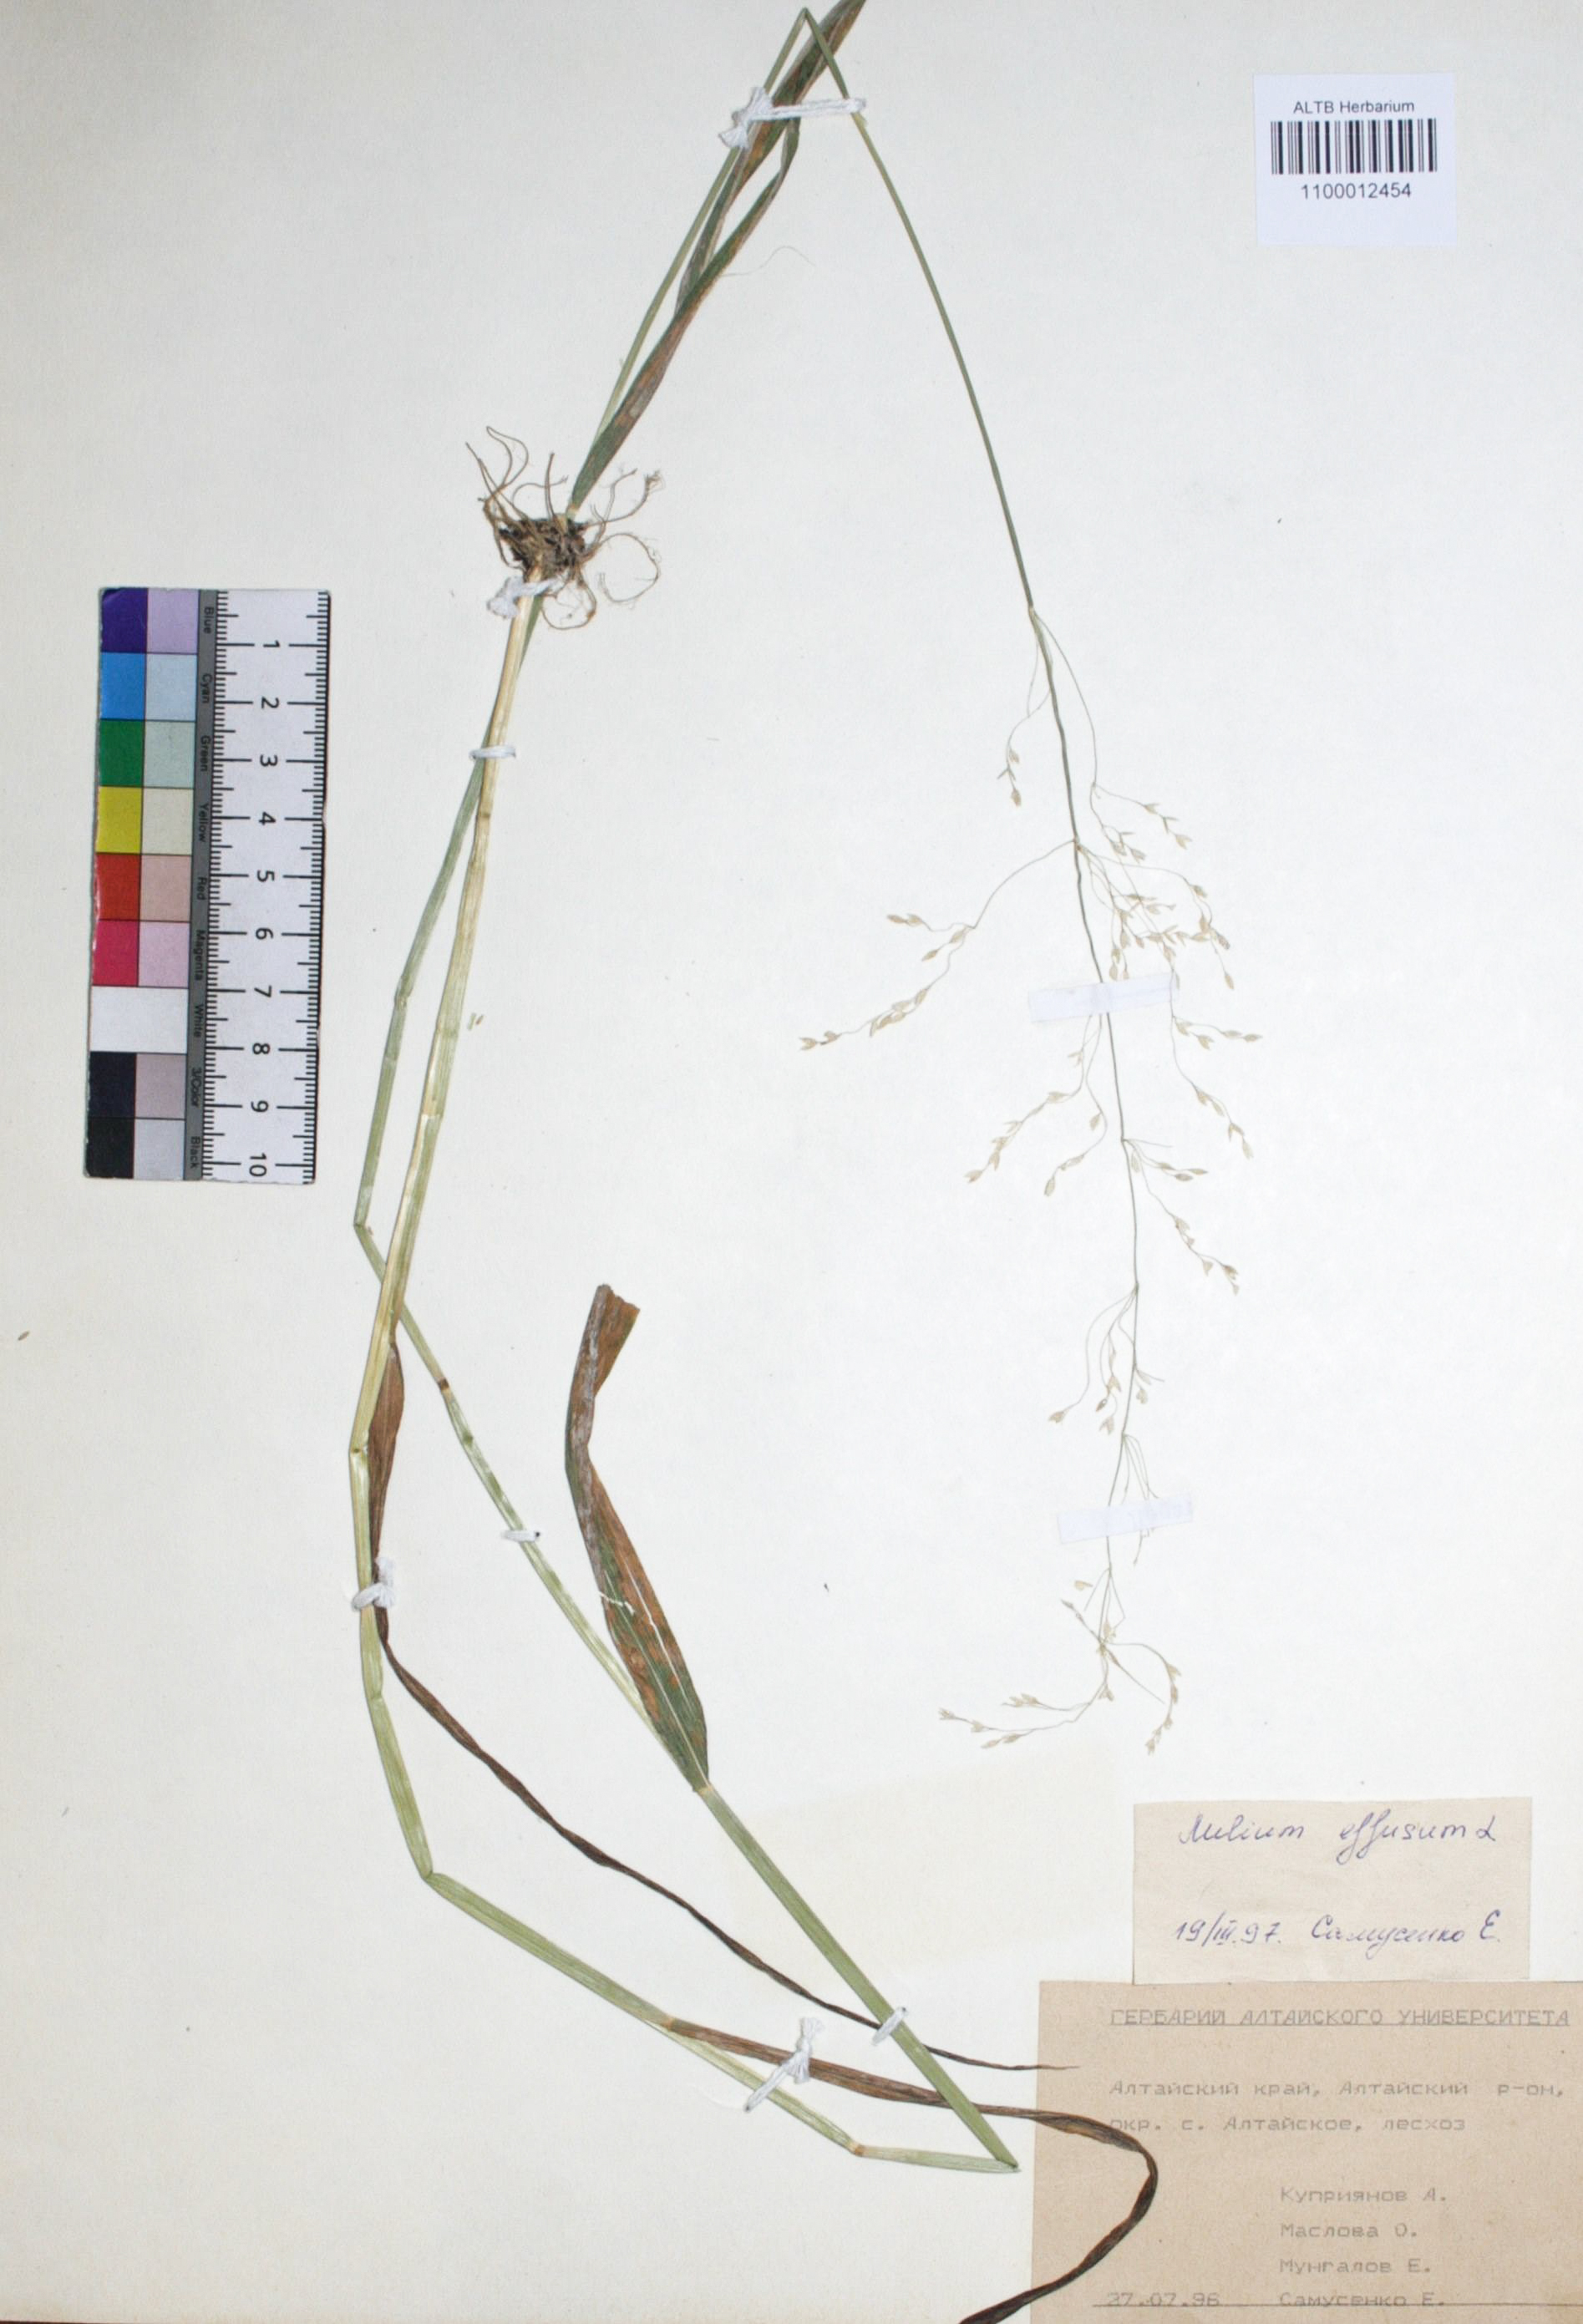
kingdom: Plantae
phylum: Tracheophyta
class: Liliopsida
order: Poales
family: Poaceae
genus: Milium
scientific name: Milium effusum
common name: Wood millet
